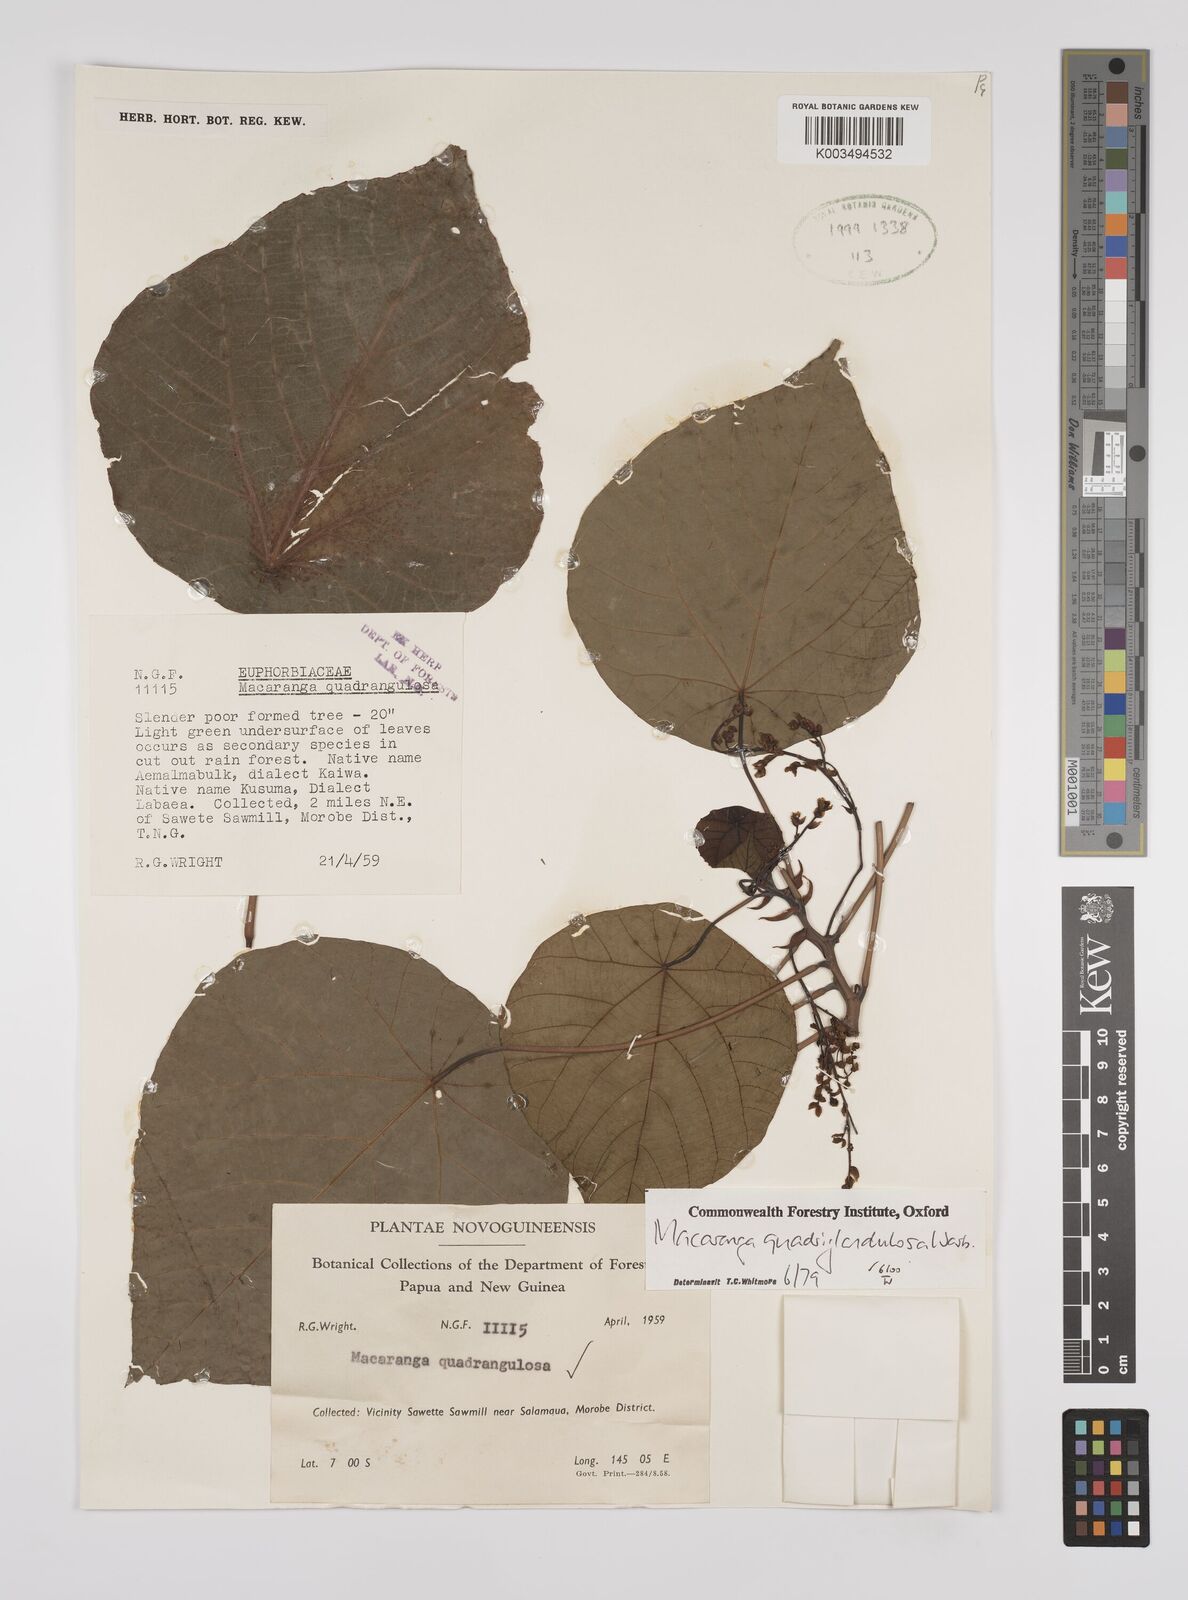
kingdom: Plantae
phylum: Tracheophyta
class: Magnoliopsida
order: Malpighiales
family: Euphorbiaceae
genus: Macaranga
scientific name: Macaranga quadriglandulosa
